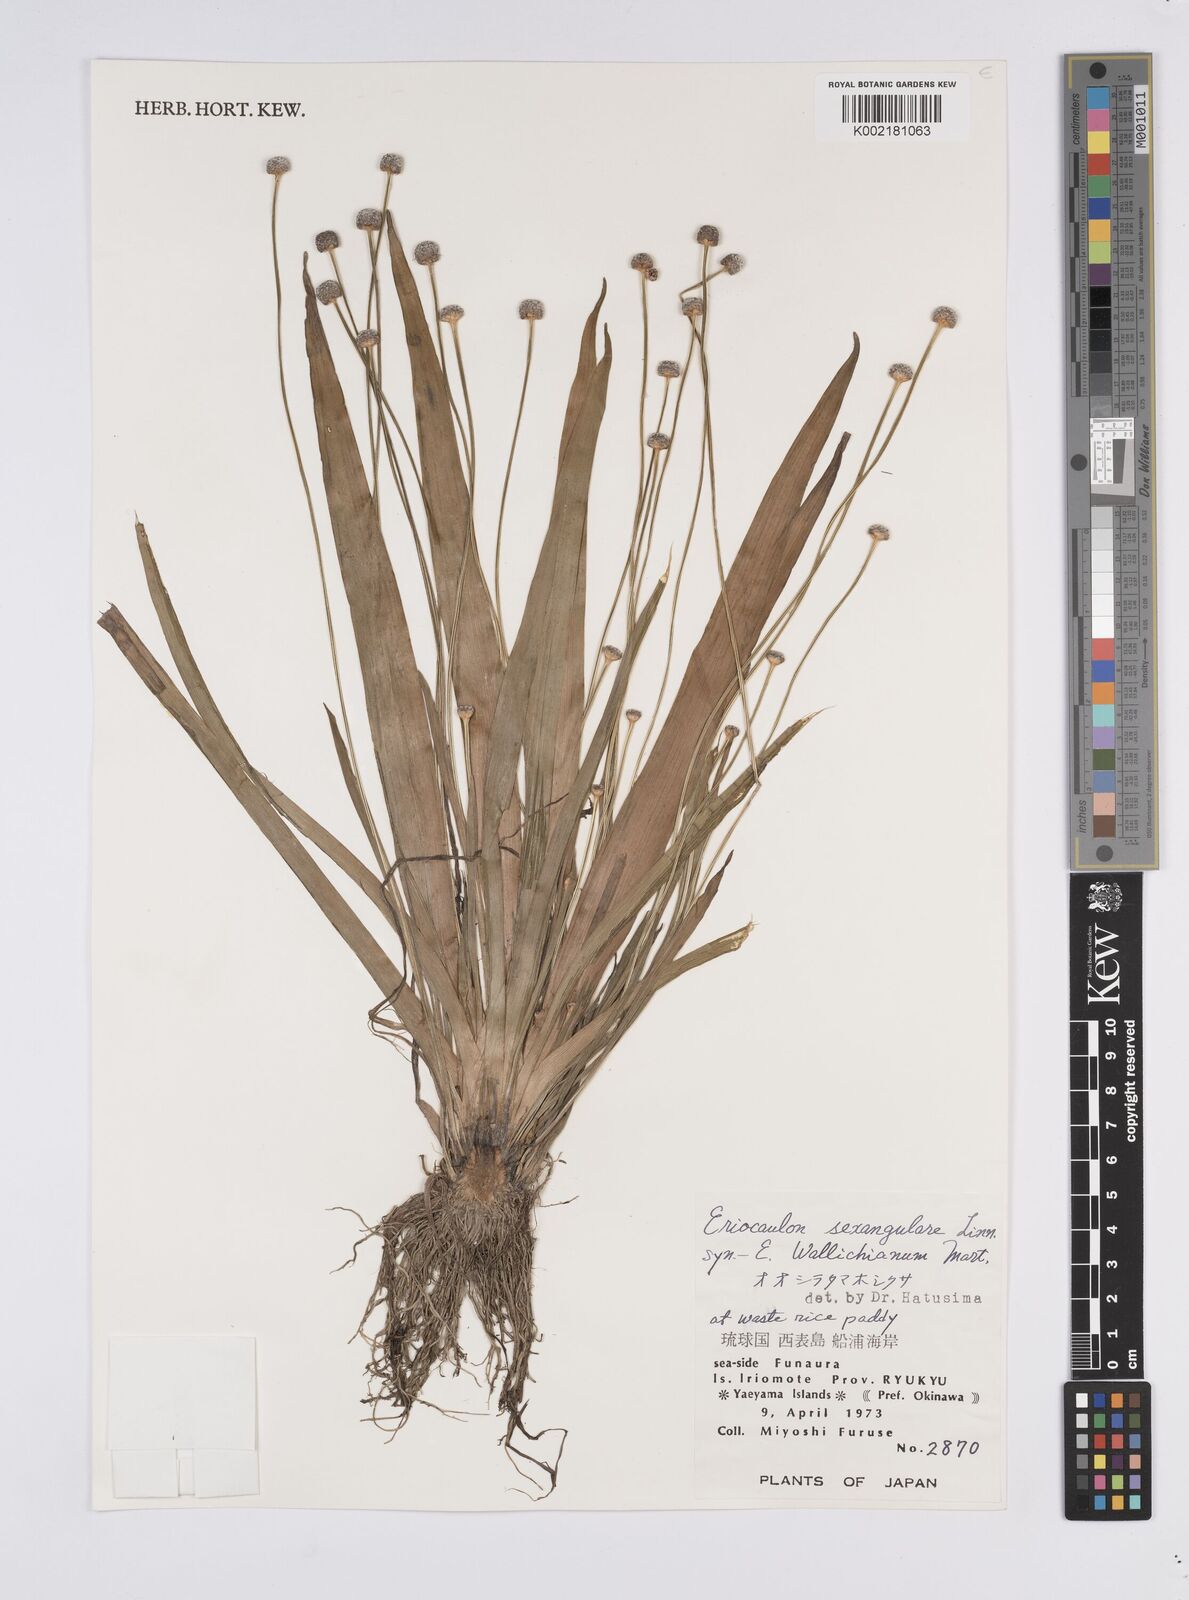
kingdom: Plantae
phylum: Tracheophyta
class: Liliopsida
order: Poales
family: Eriocaulaceae
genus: Eriocaulon
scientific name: Eriocaulon sexangulare
